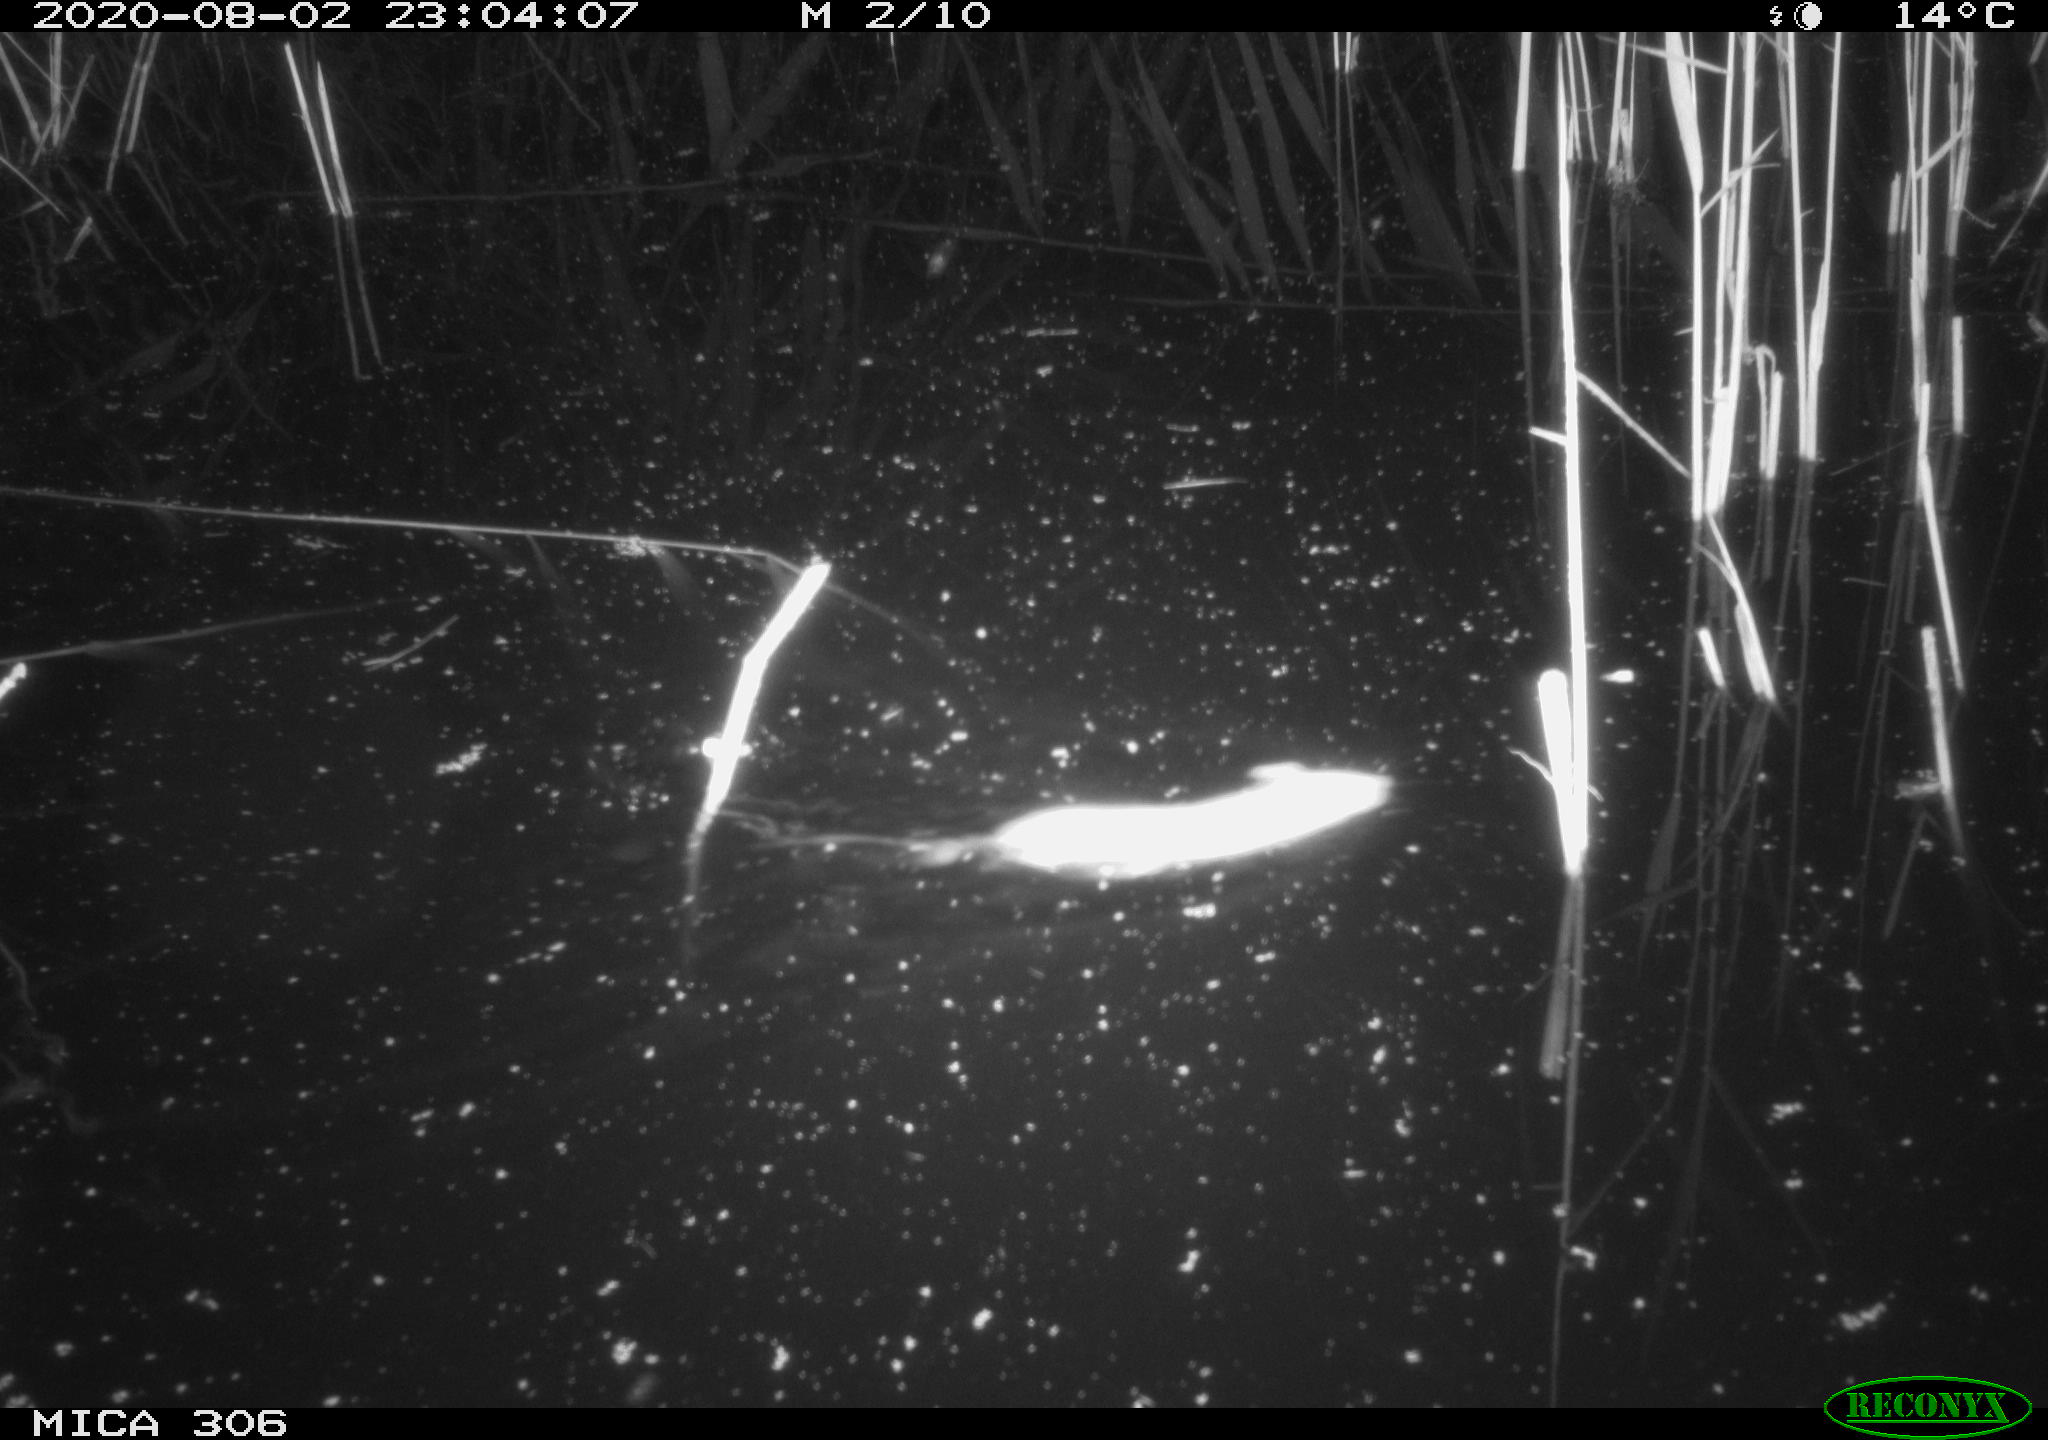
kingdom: Animalia
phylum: Chordata
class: Mammalia
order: Rodentia
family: Muridae
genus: Rattus
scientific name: Rattus norvegicus
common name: Brown rat
